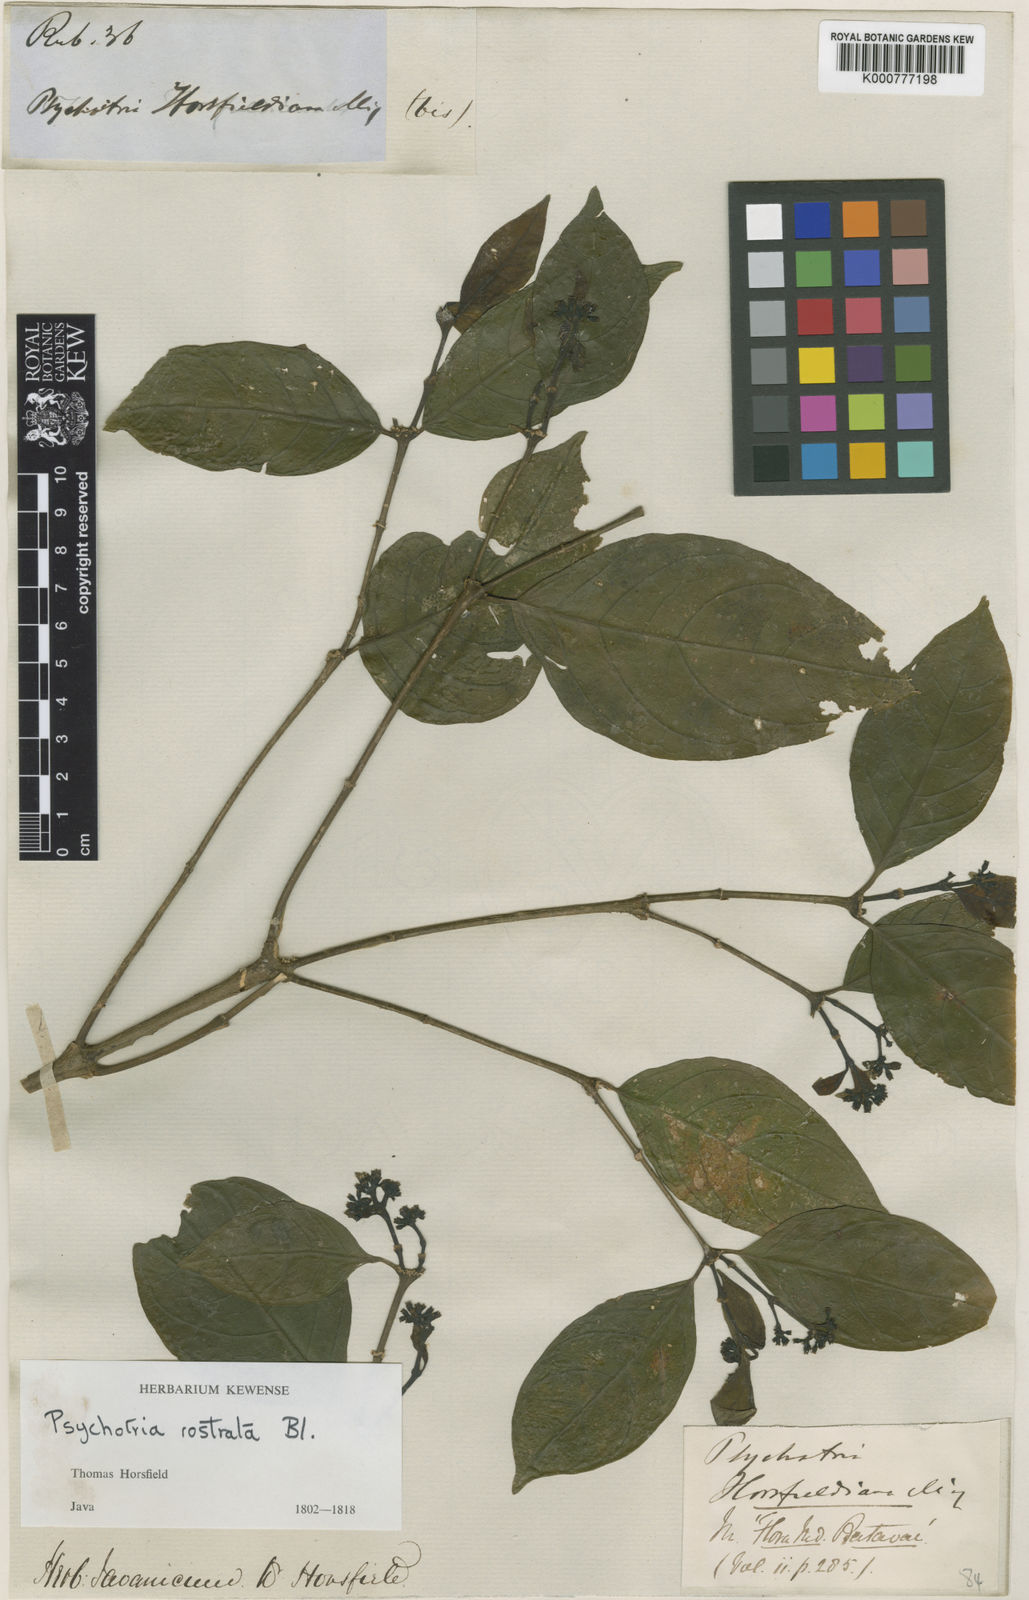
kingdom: Plantae
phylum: Tracheophyta
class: Magnoliopsida
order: Gentianales
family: Rubiaceae
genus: Eumachia
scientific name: Eumachia horsfieldiana
